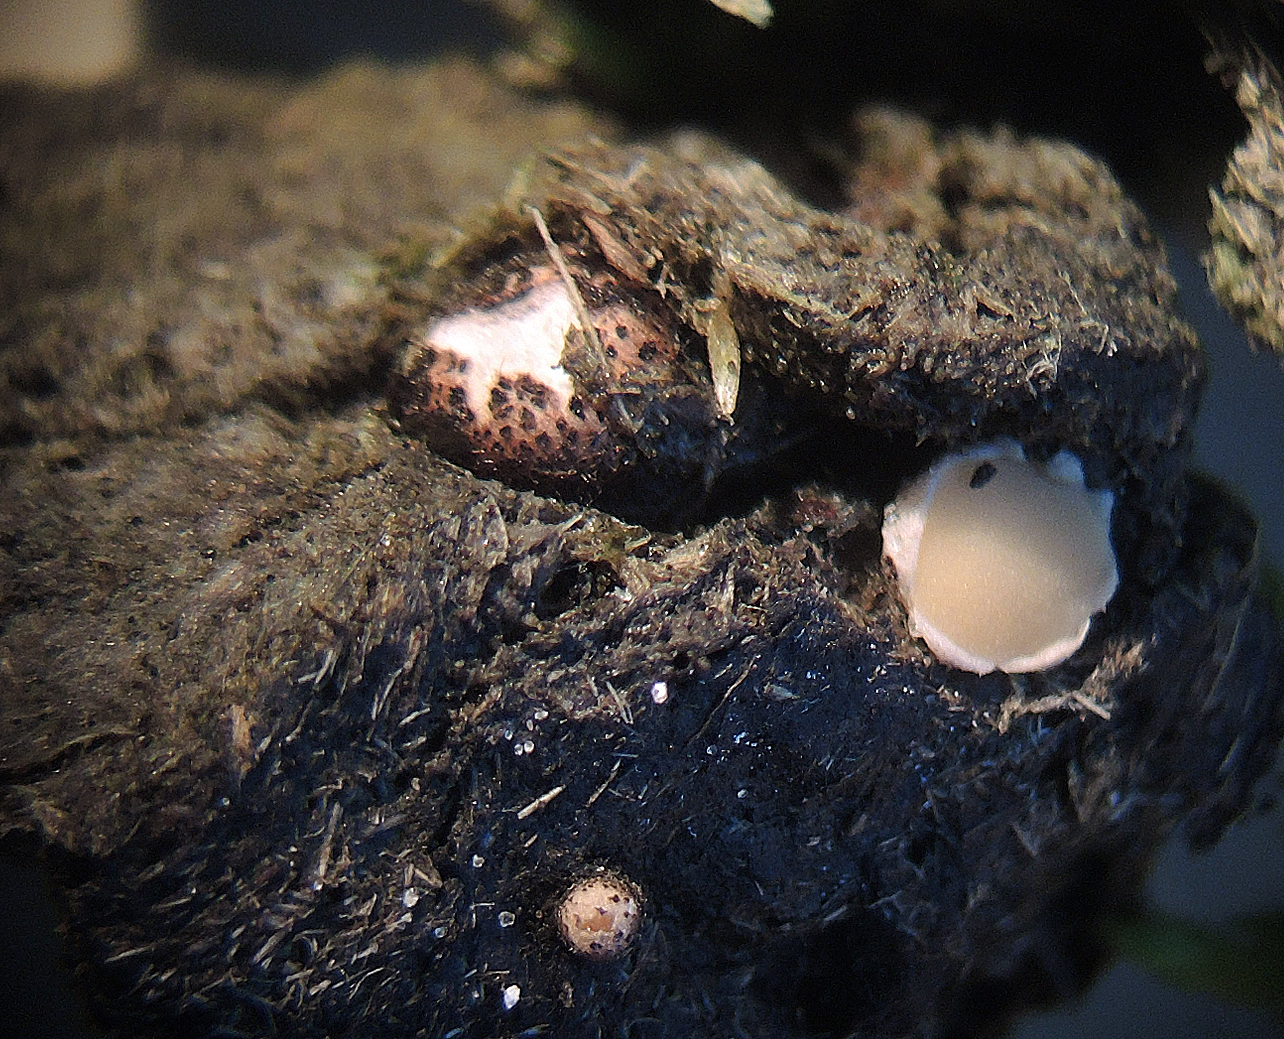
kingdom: Fungi
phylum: Ascomycota
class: Pezizomycetes
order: Pezizales
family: Pseudombrophilaceae
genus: Pseudombrophila
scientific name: Pseudombrophila ripensis
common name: knoldet randbæger
